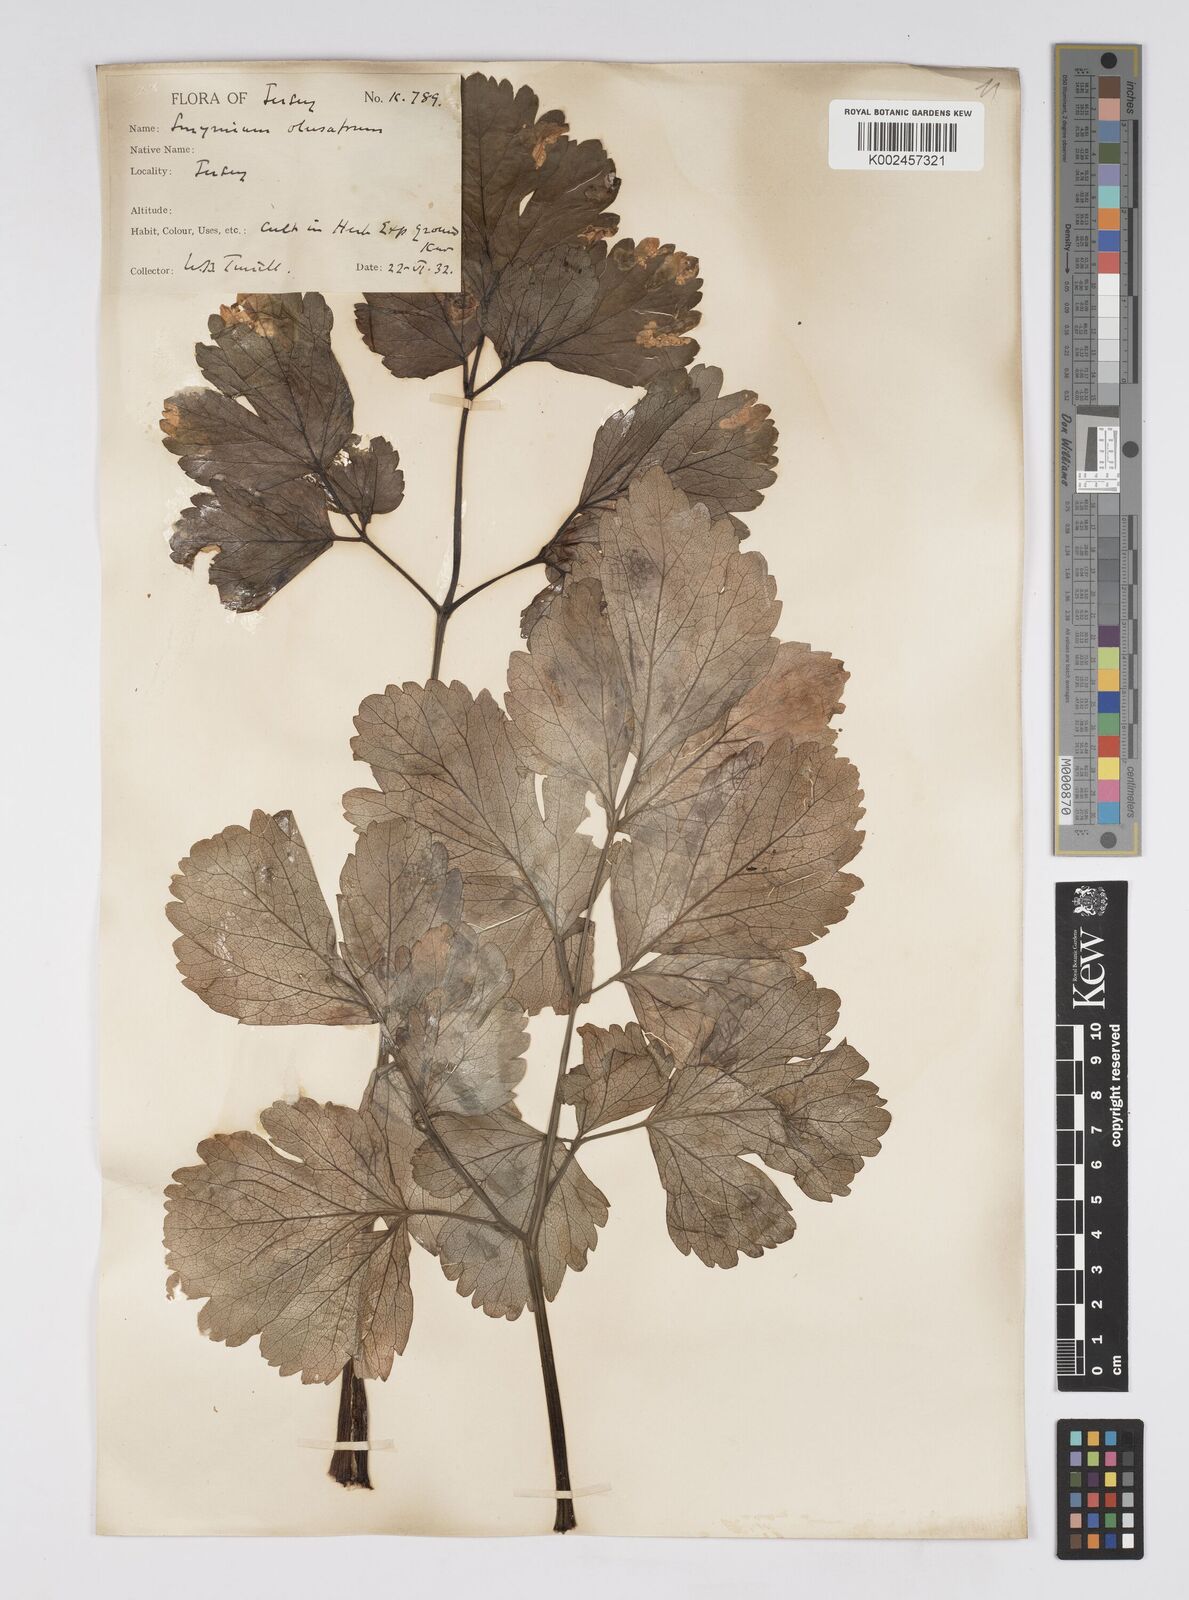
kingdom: Plantae
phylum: Tracheophyta
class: Magnoliopsida
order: Apiales
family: Apiaceae
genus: Smyrnium
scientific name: Smyrnium olusatrum
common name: Alexanders
